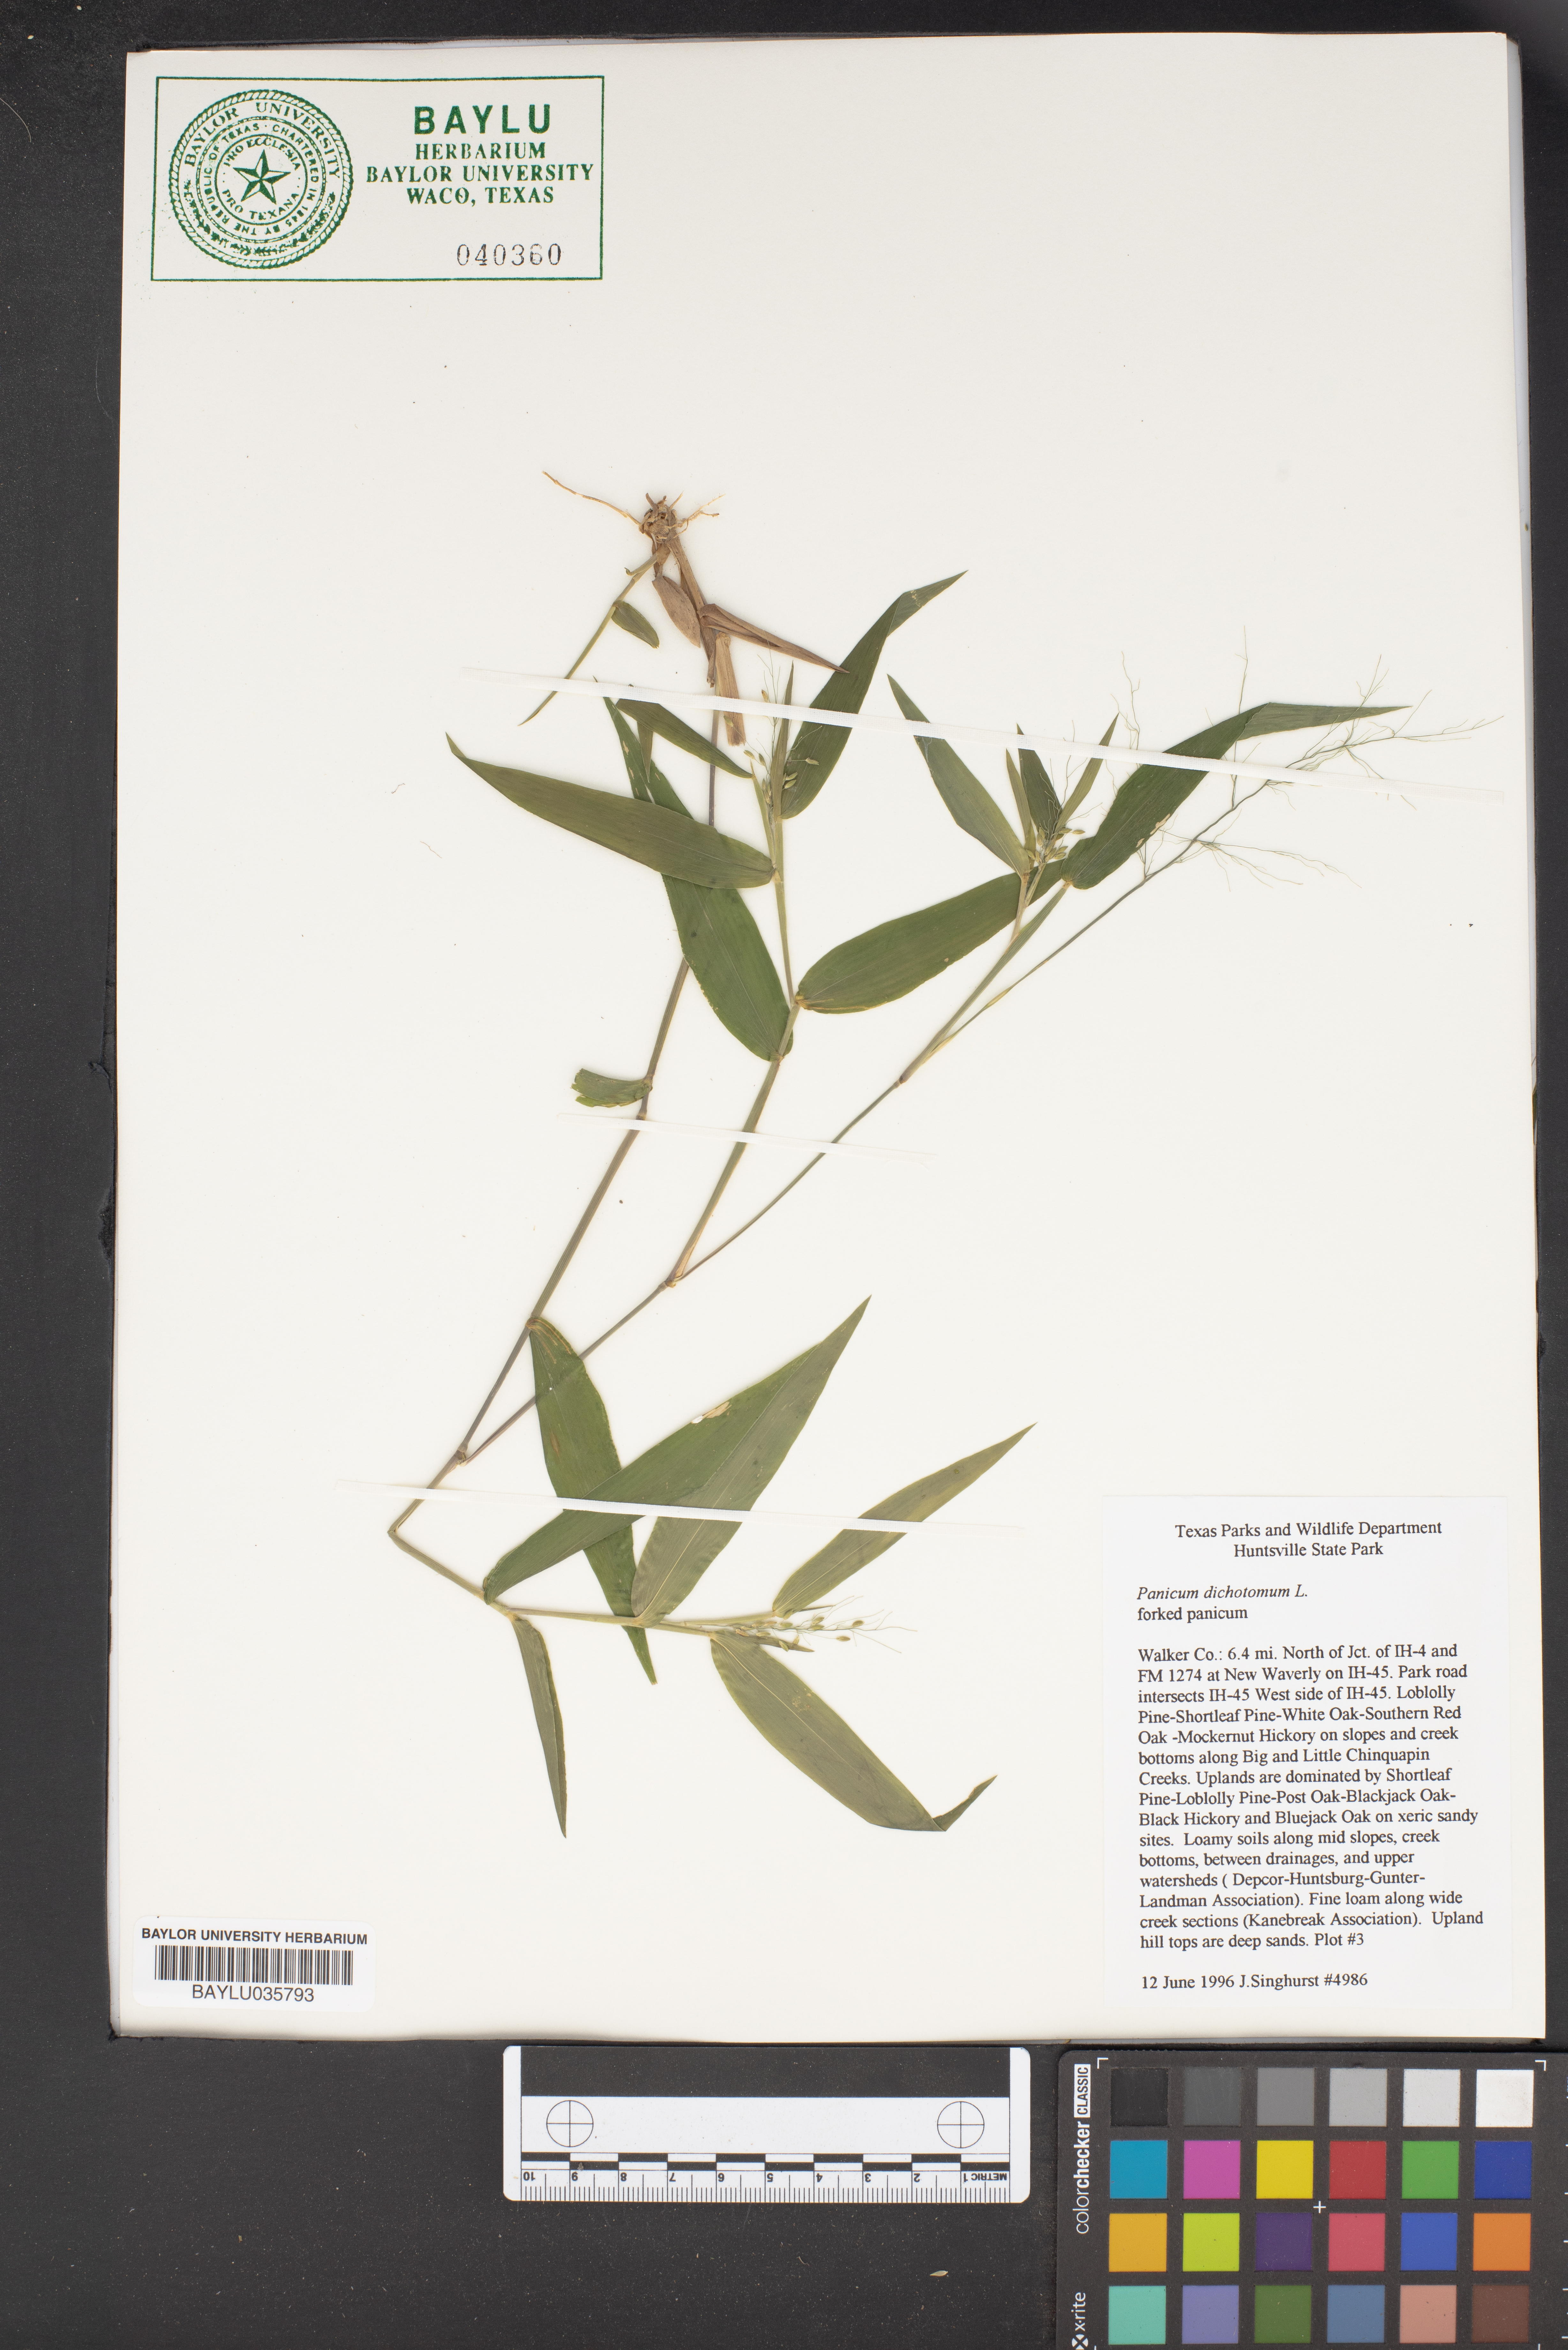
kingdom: Plantae
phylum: Tracheophyta
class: Liliopsida
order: Poales
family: Poaceae
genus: Dichanthelium
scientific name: Dichanthelium dichotomum
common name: Cypress panicgrass
